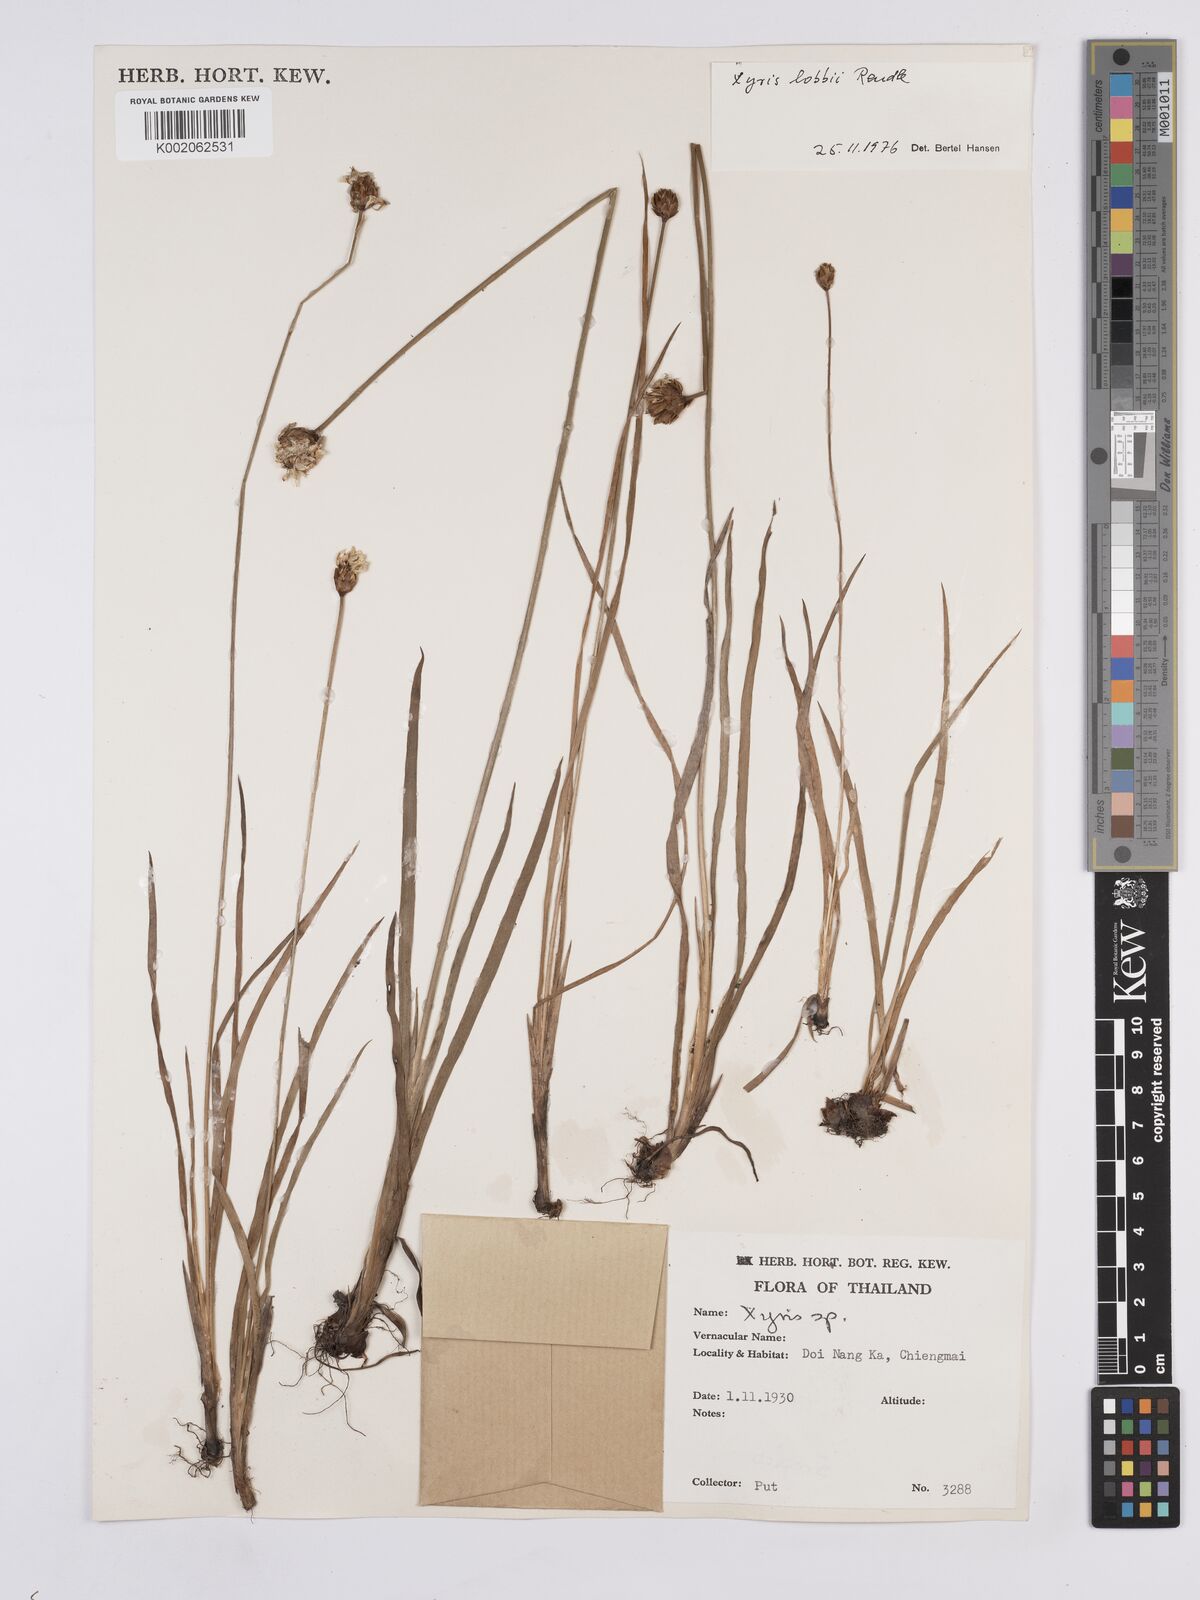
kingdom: Plantae
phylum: Tracheophyta
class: Liliopsida
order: Poales
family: Xyridaceae
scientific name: Xyridaceae
